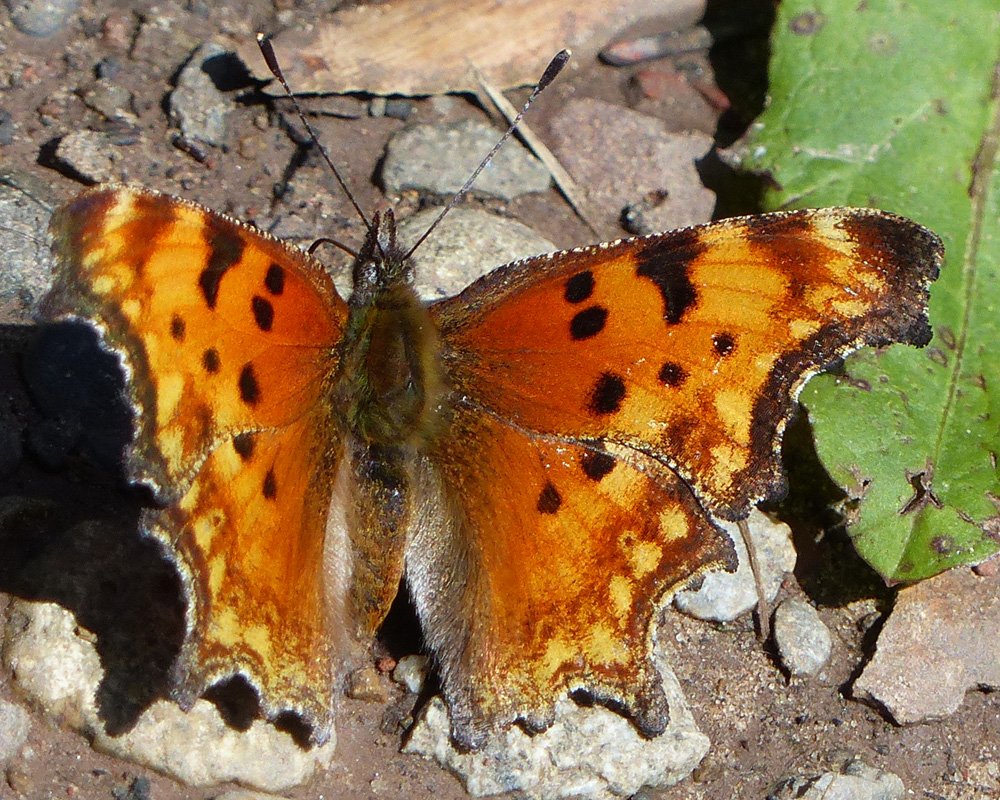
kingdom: Animalia
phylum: Arthropoda
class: Insecta
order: Lepidoptera
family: Nymphalidae
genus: Polygonia
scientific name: Polygonia gracilis
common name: Hoary Comma
